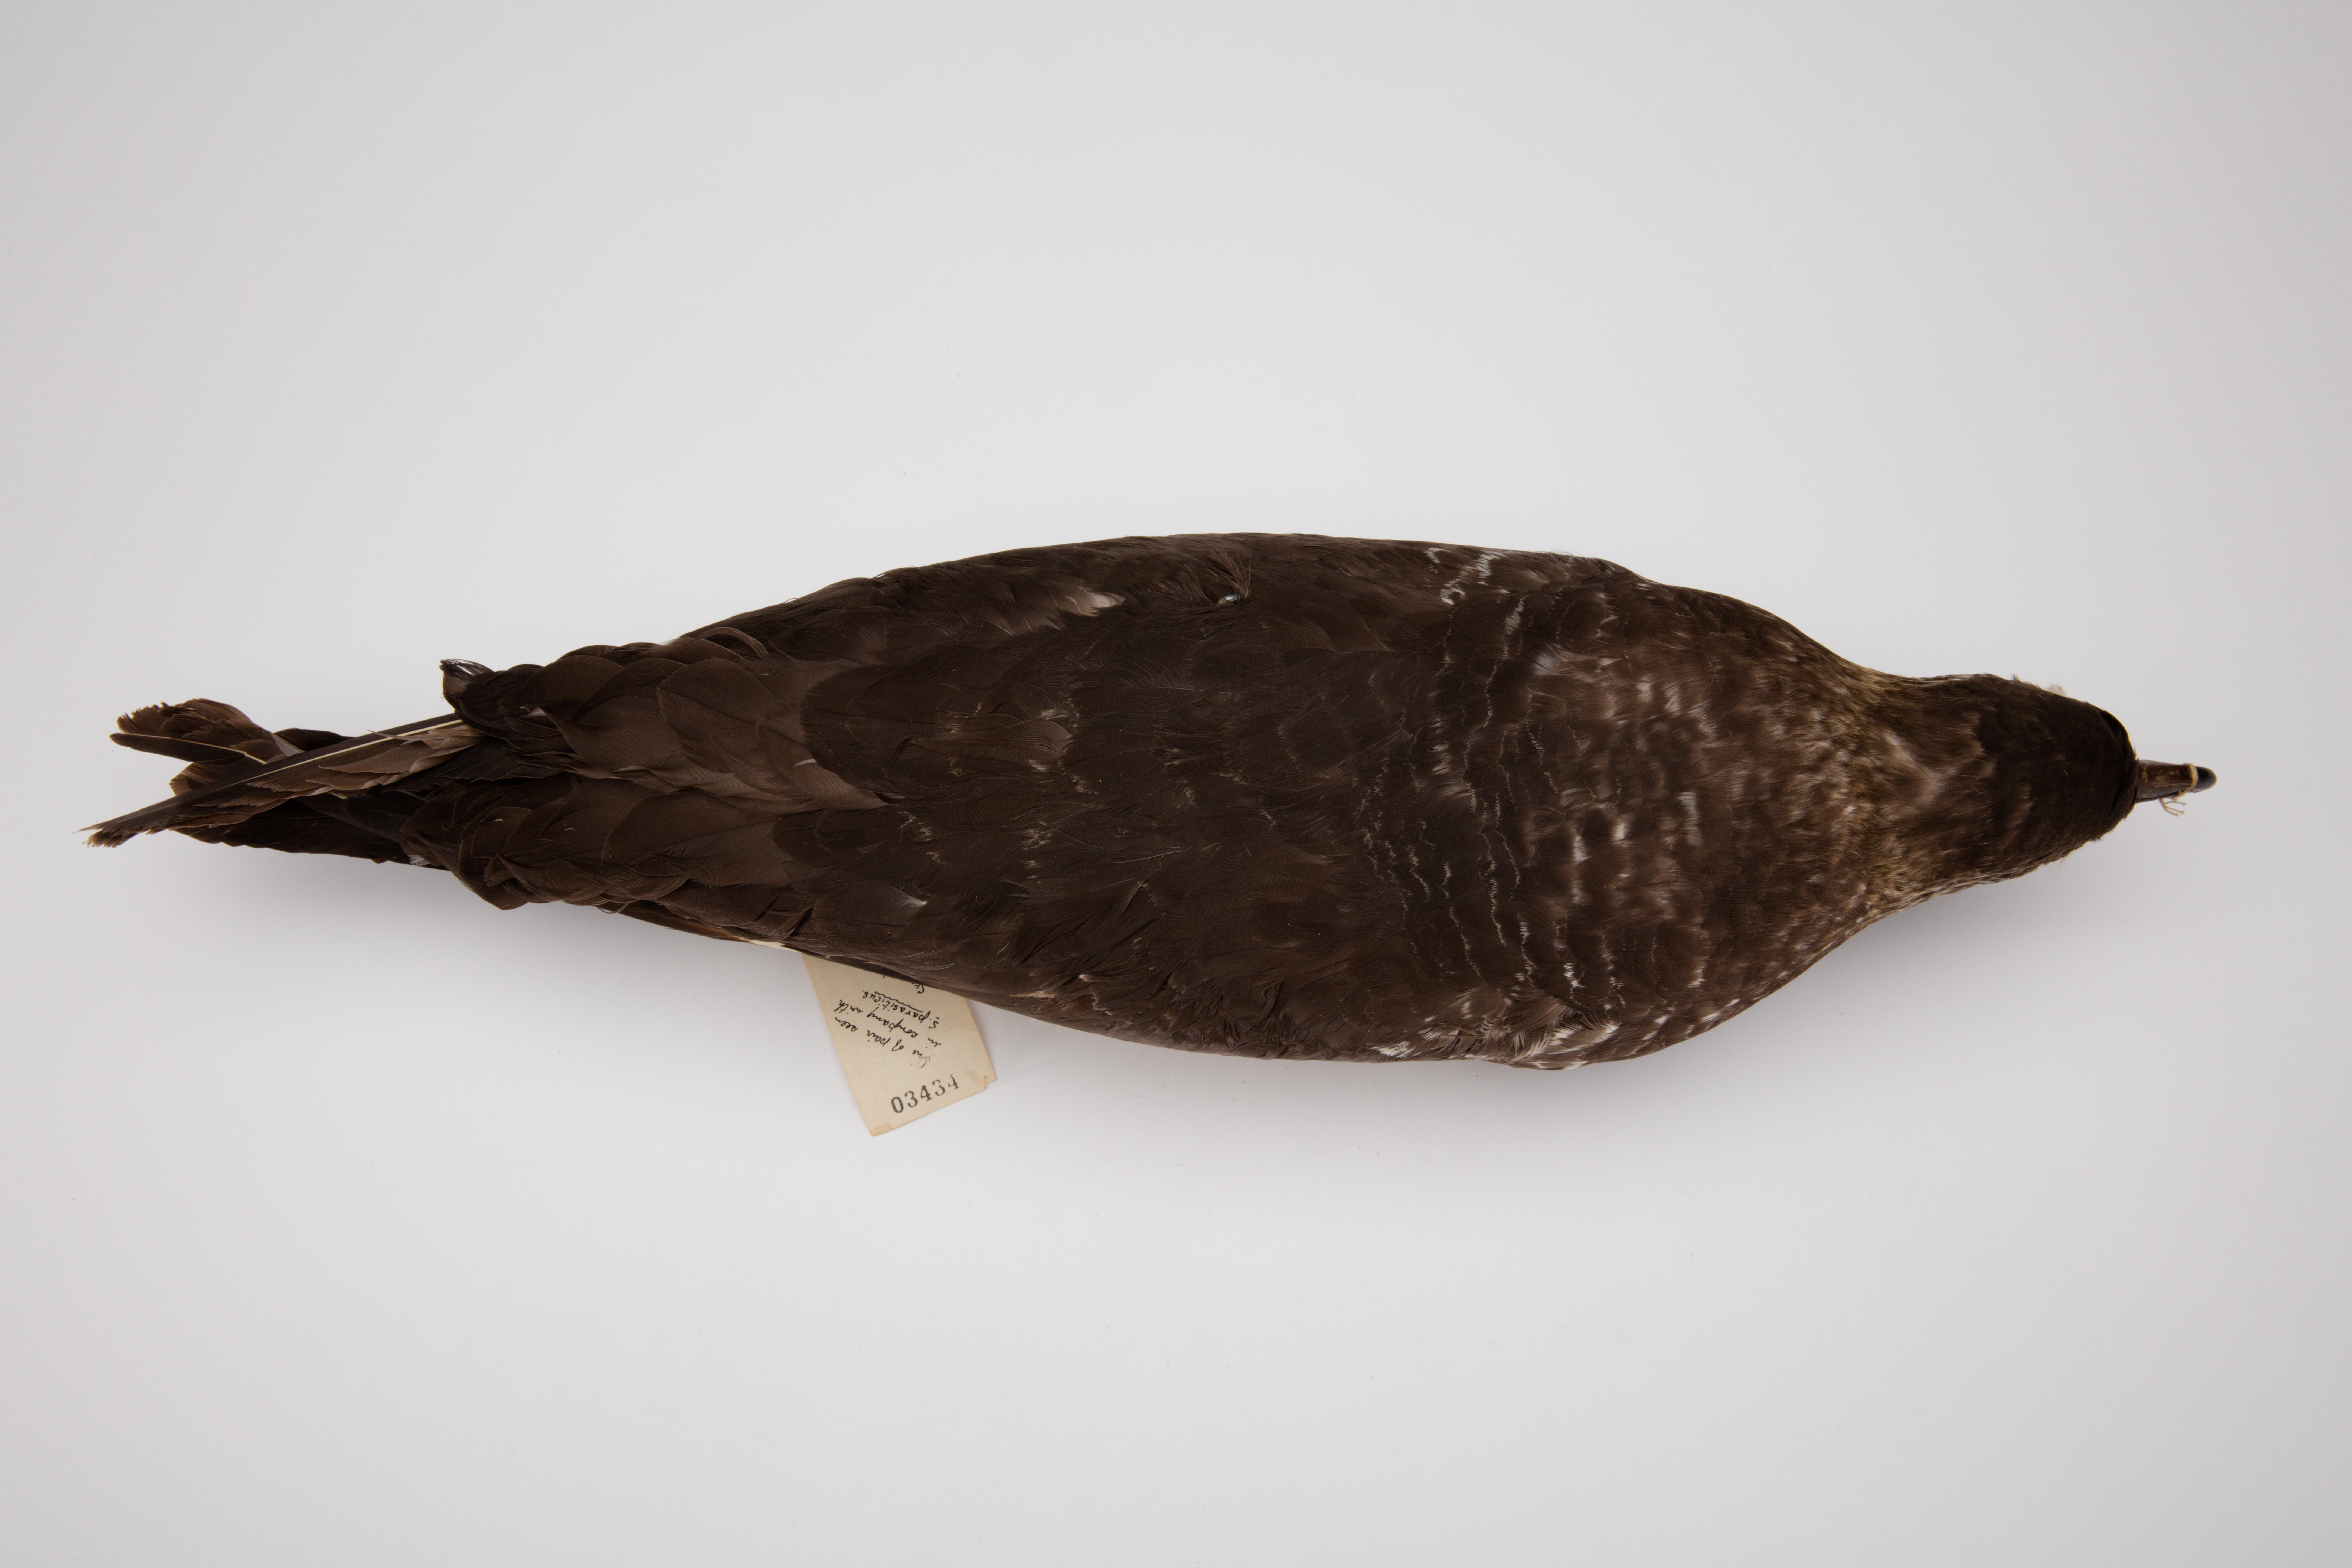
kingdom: Animalia
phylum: Chordata
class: Aves
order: Charadriiformes
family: Stercorariidae
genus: Stercorarius
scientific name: Stercorarius
